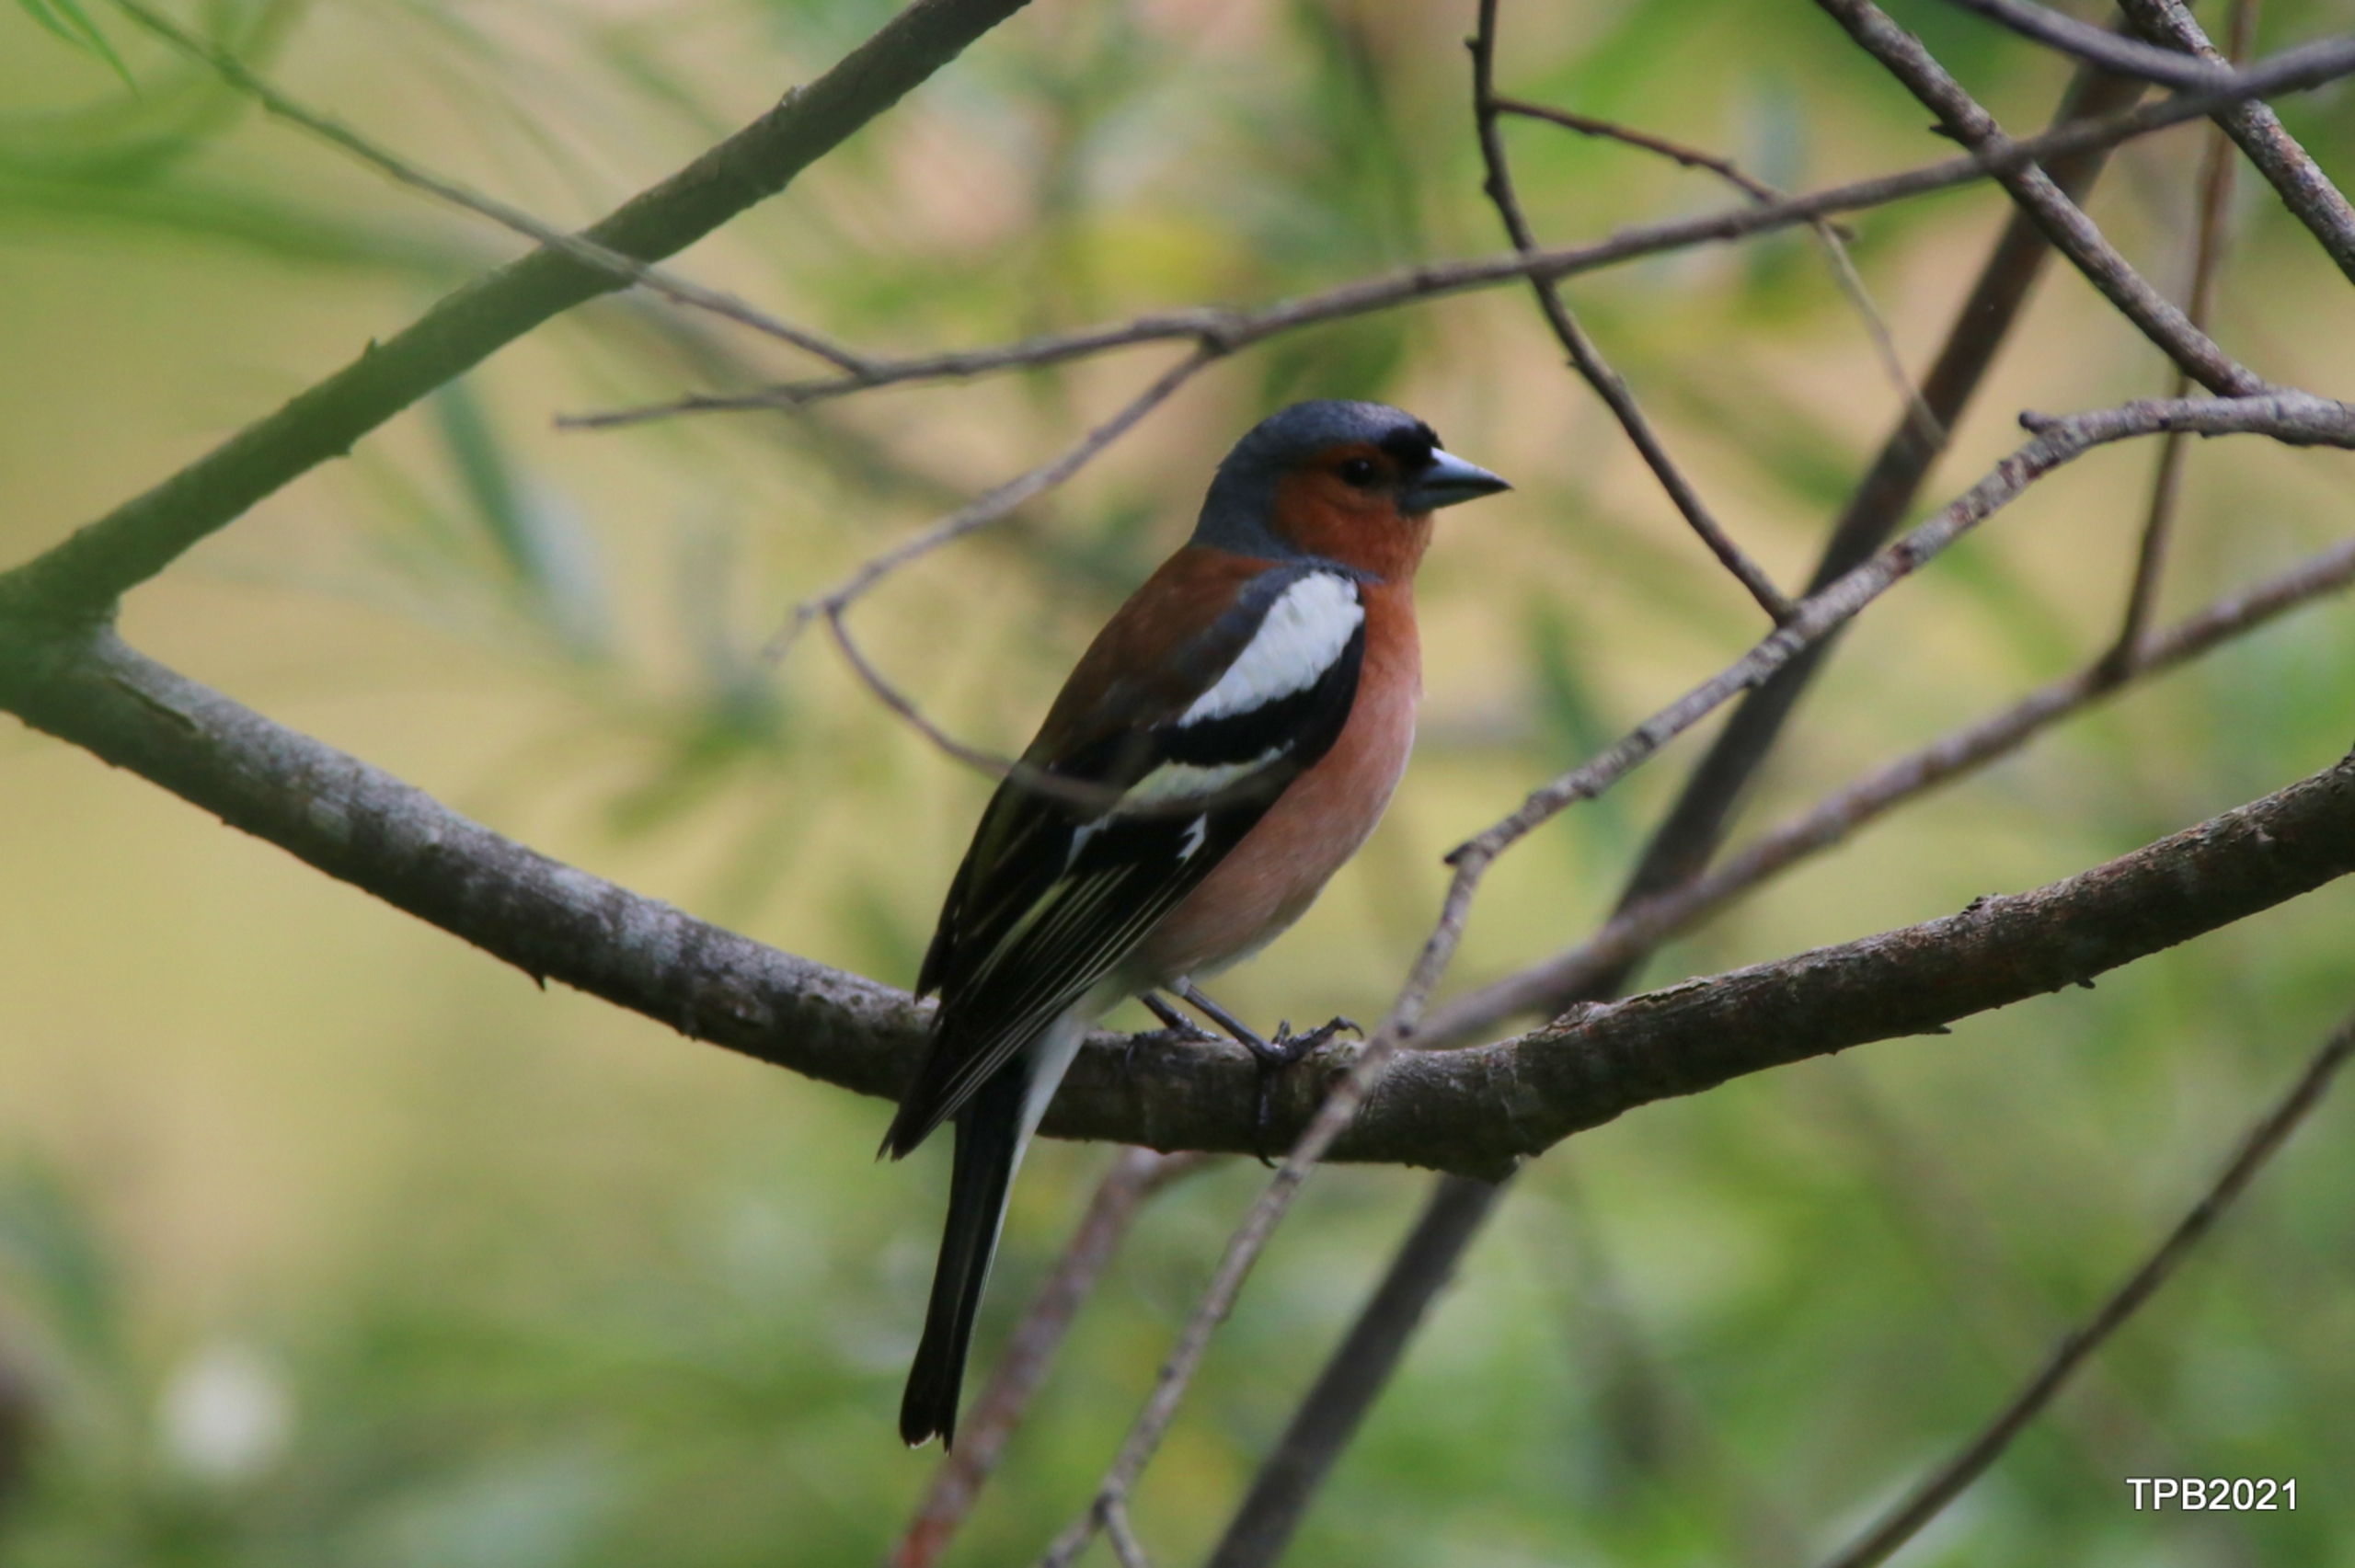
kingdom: Animalia
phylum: Chordata
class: Aves
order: Passeriformes
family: Fringillidae
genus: Fringilla
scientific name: Fringilla coelebs
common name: Bogfinke
